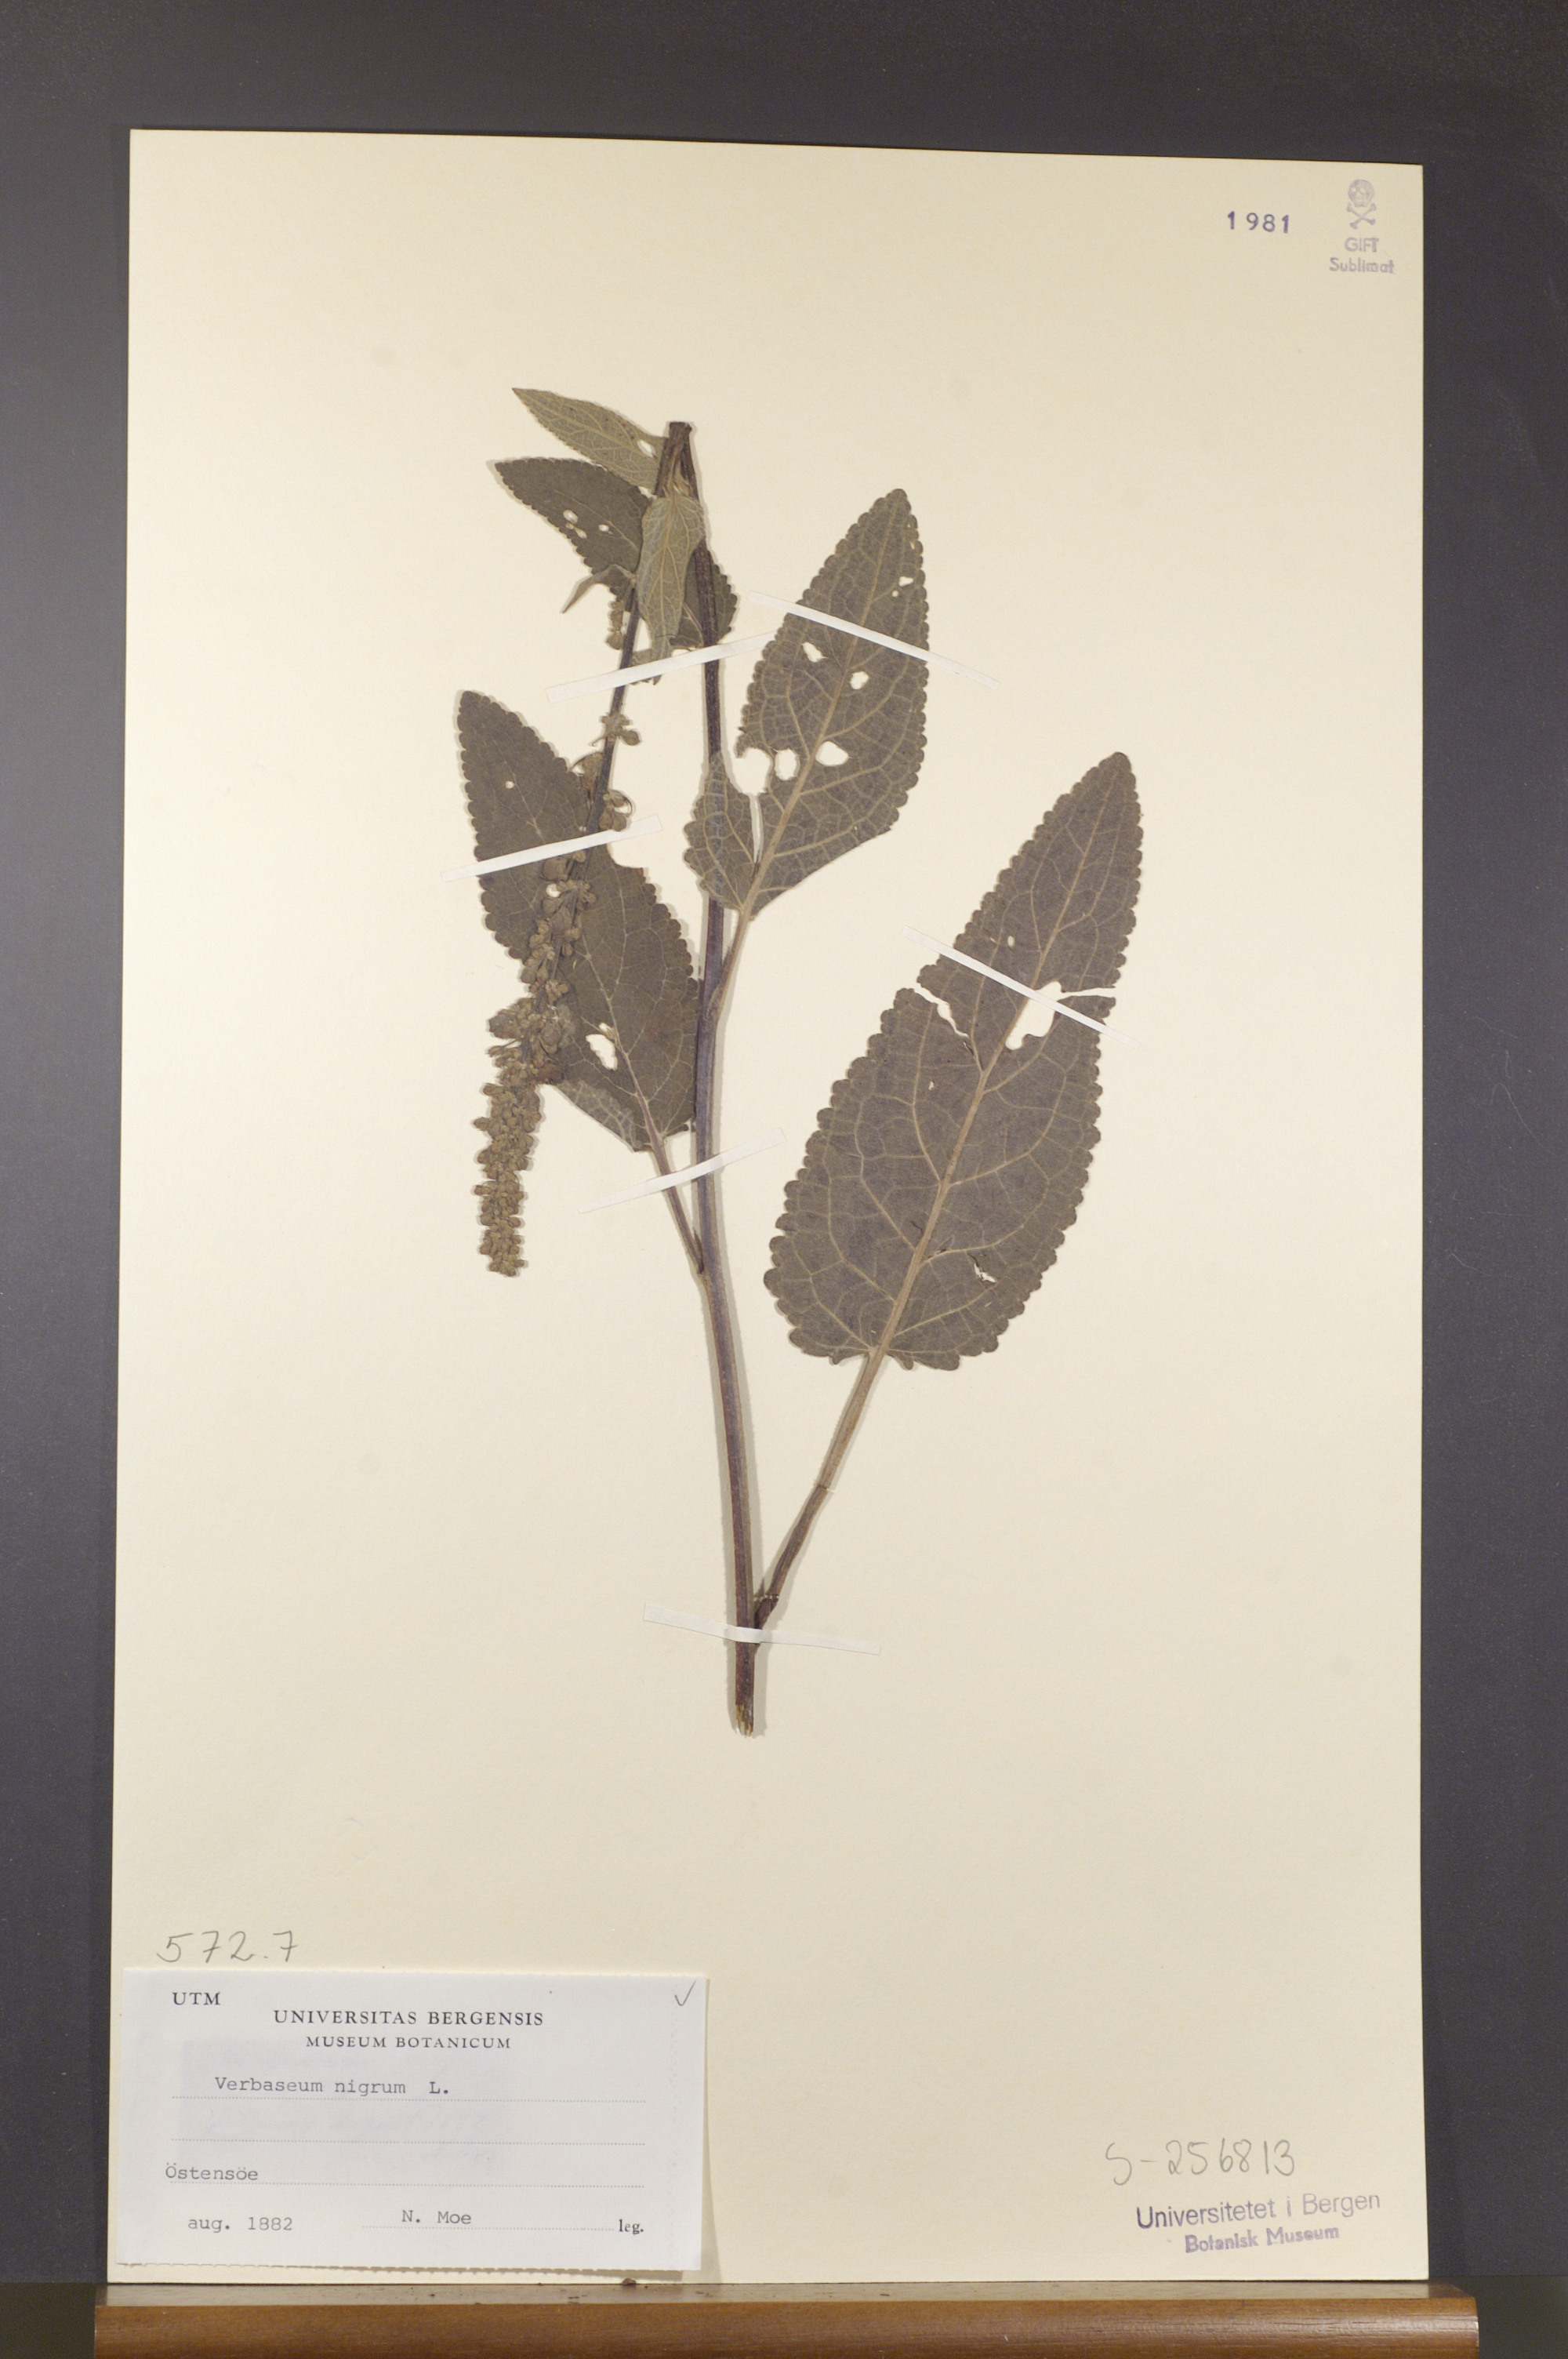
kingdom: Plantae
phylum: Tracheophyta
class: Magnoliopsida
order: Lamiales
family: Scrophulariaceae
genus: Verbascum
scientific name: Verbascum nigrum
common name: Dark mullein
